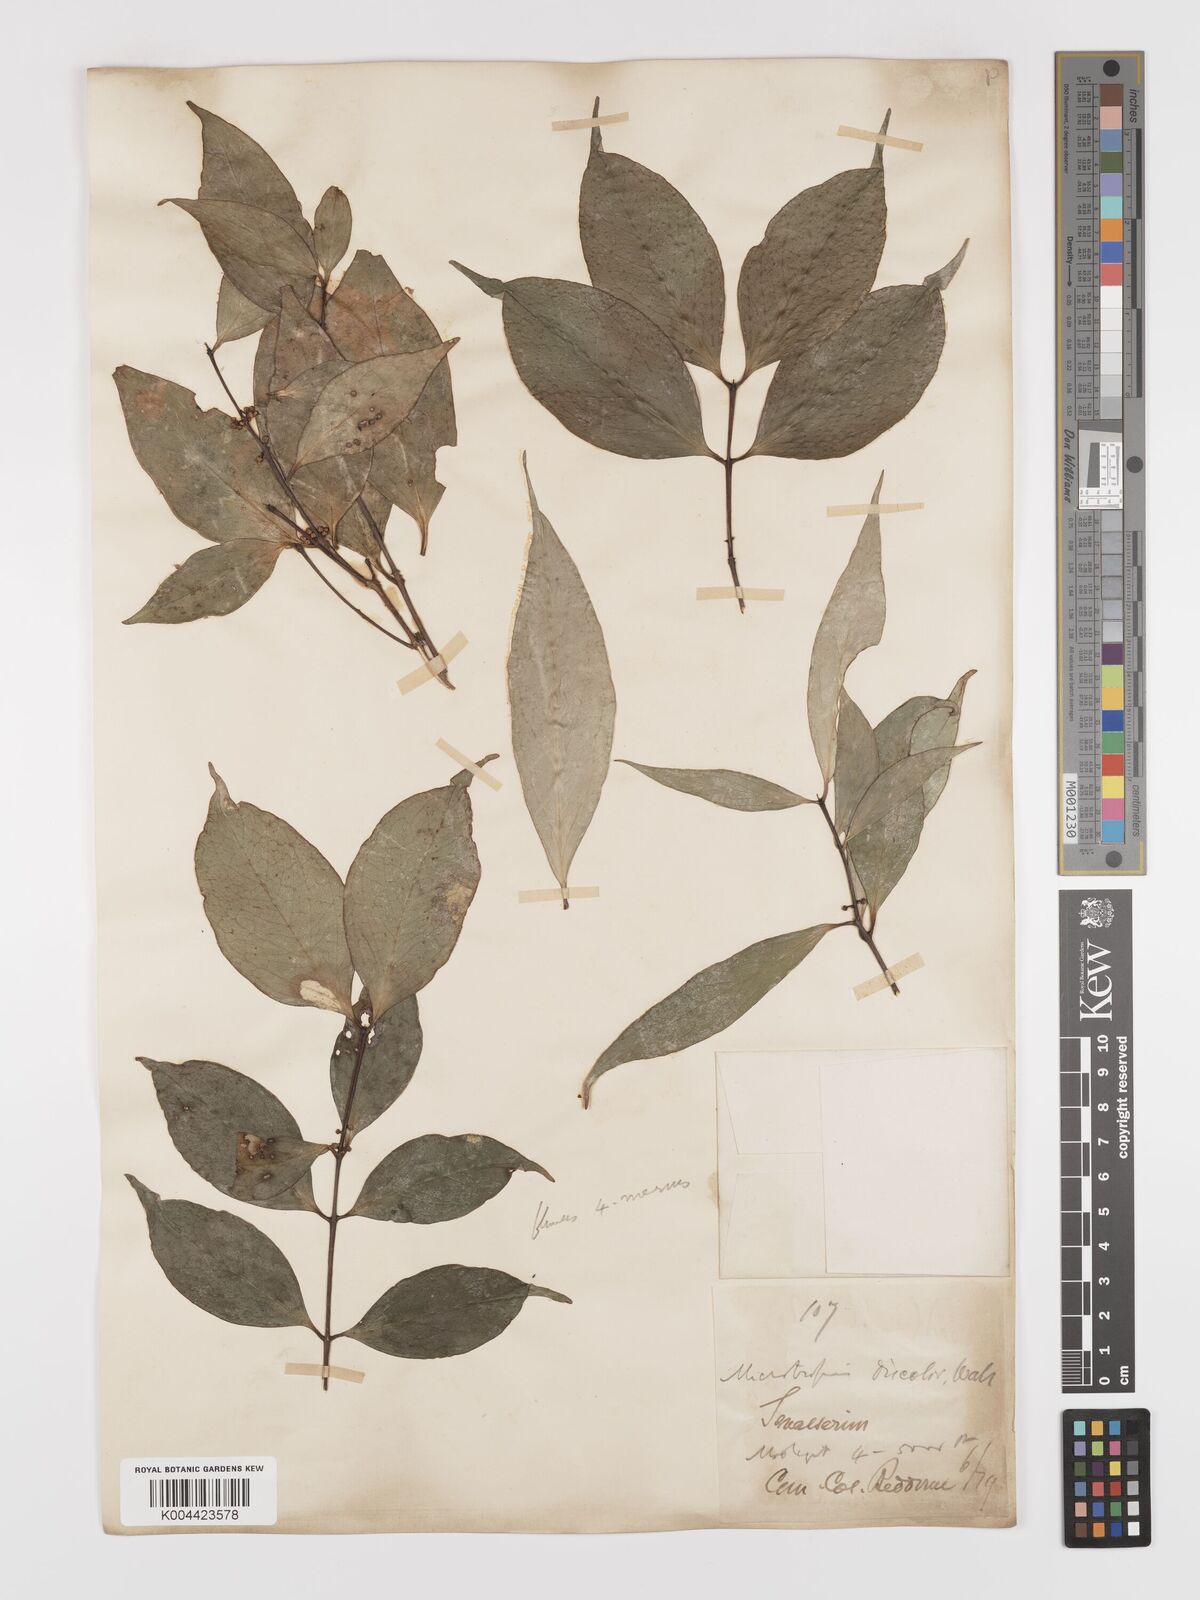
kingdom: Plantae
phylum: Tracheophyta
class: Magnoliopsida
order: Celastrales
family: Celastraceae
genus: Microtropis
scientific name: Microtropis discolor
